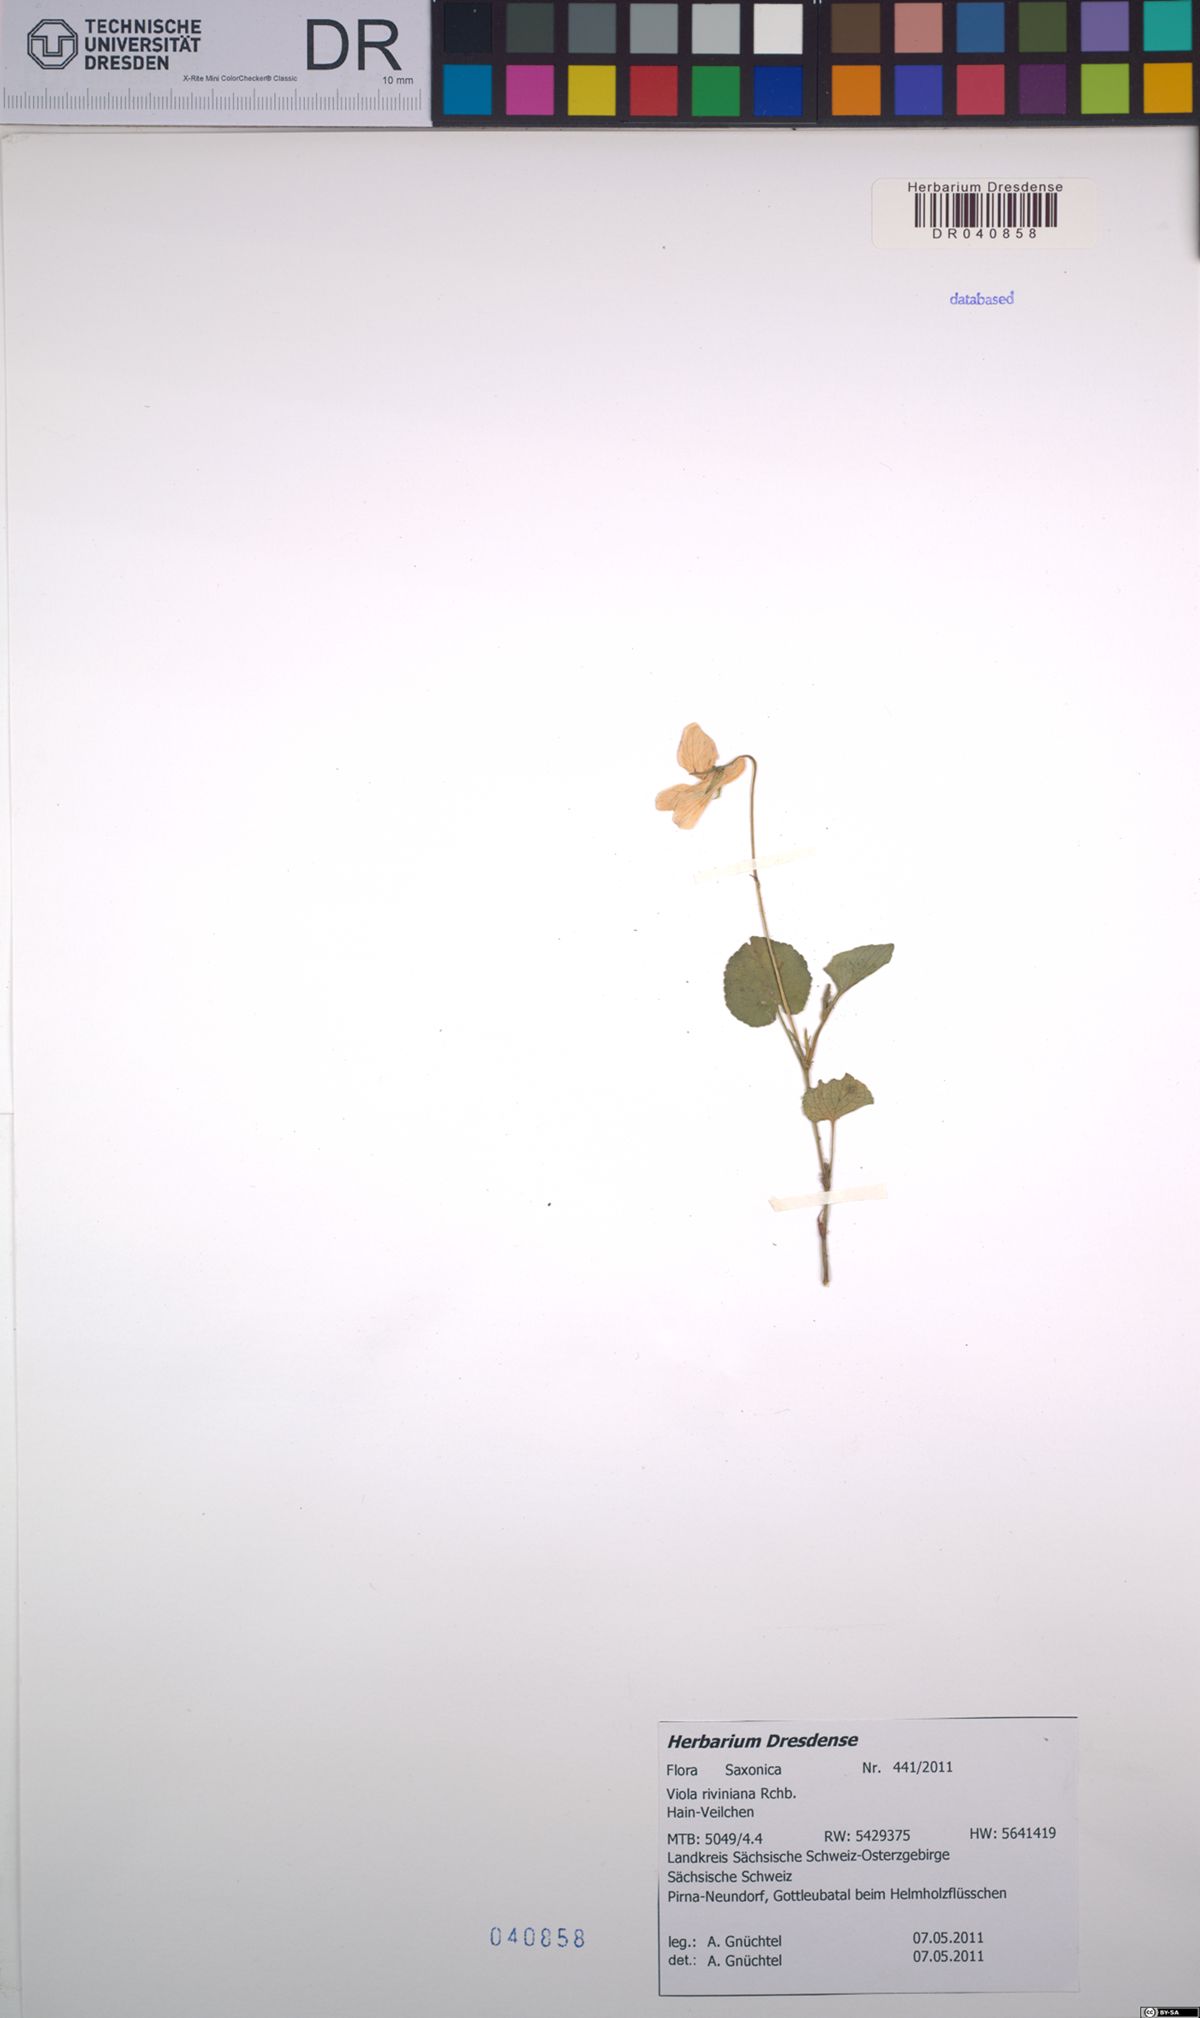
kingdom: Plantae
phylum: Tracheophyta
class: Magnoliopsida
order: Malpighiales
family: Violaceae
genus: Viola
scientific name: Viola riviniana
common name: Common dog-violet
